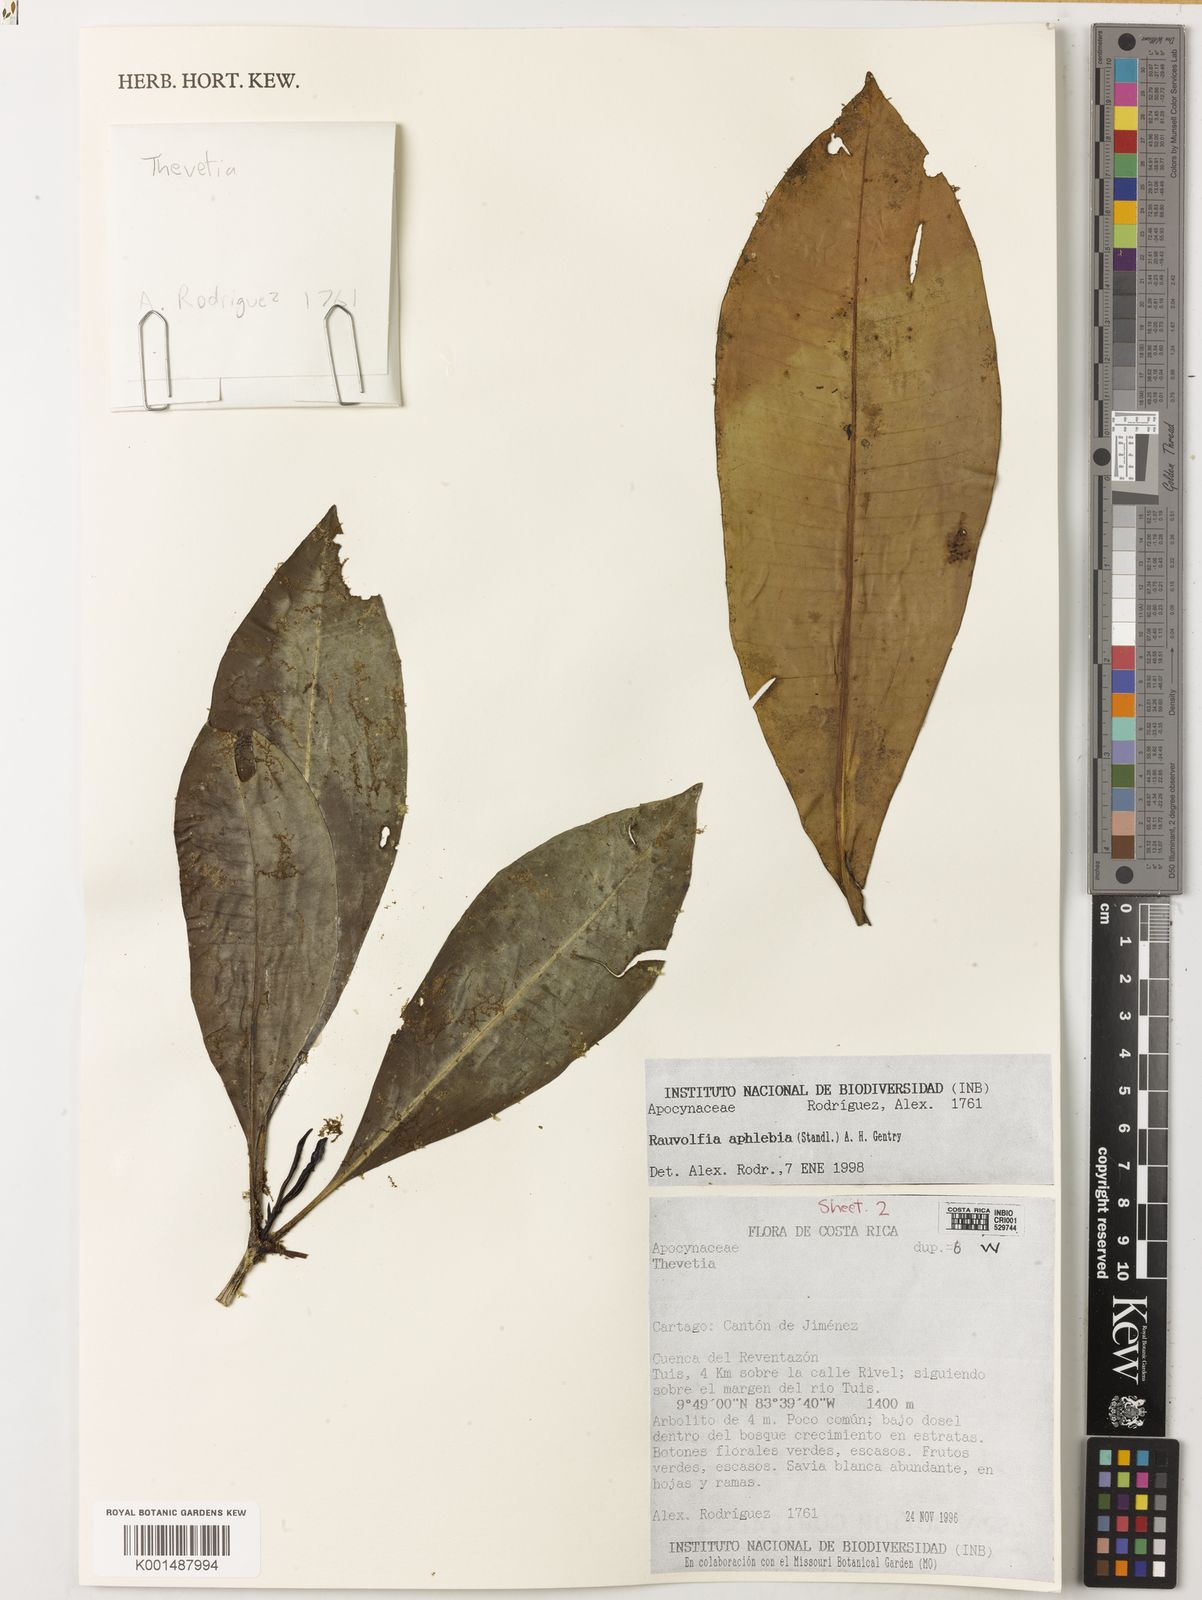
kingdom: Plantae
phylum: Tracheophyta
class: Magnoliopsida
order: Gentianales
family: Apocynaceae
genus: Rauvolfia
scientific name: Rauvolfia aphlebia
